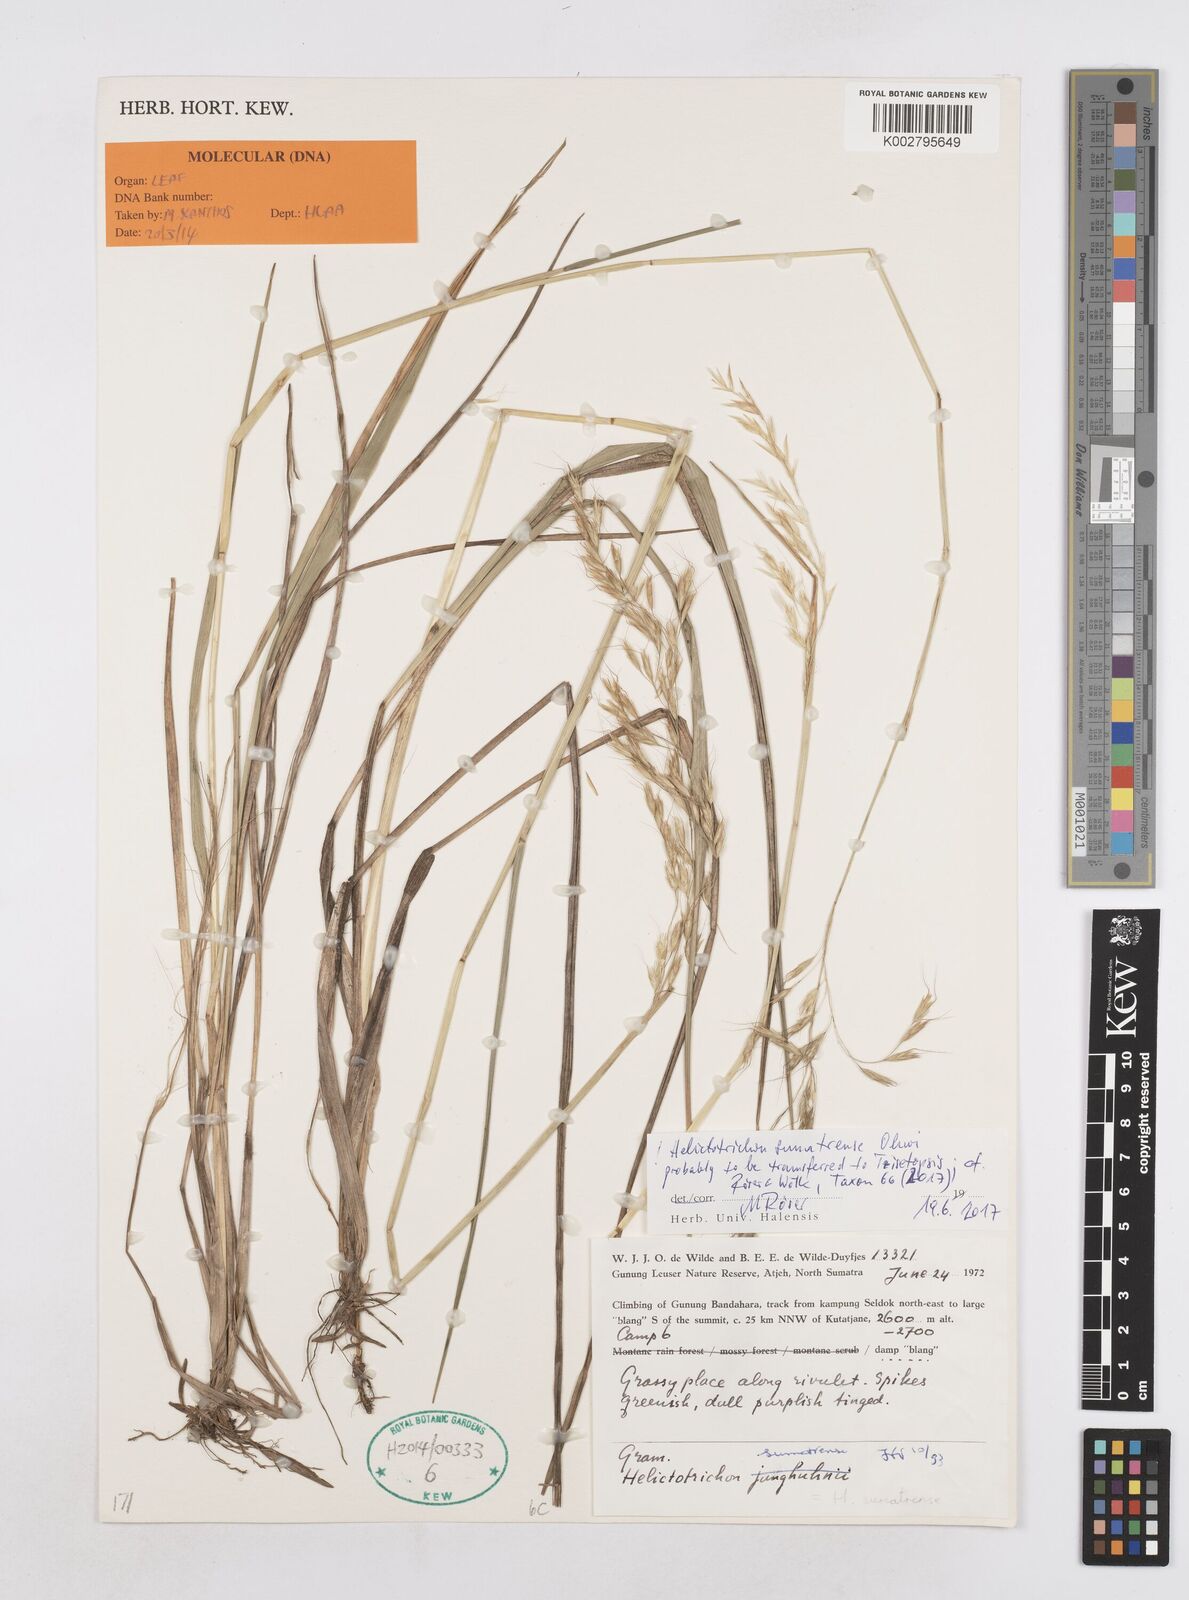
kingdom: Plantae
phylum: Tracheophyta
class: Liliopsida
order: Poales
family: Poaceae
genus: Helictotrichon
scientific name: Helictotrichon sumatrense
